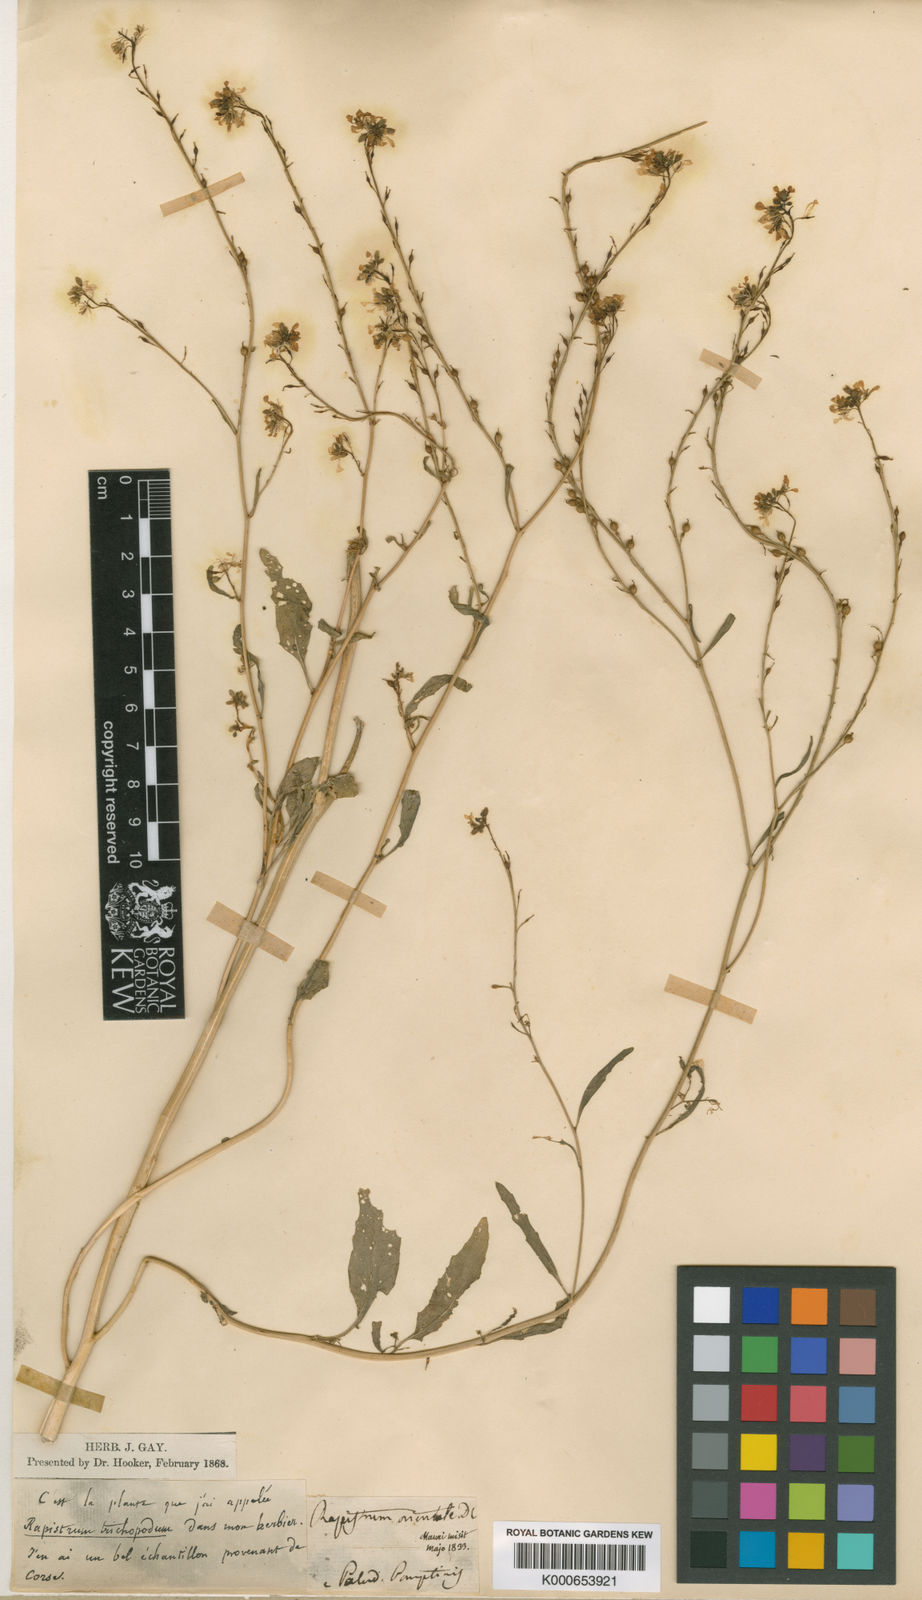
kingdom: Plantae
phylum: Tracheophyta
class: Magnoliopsida
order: Brassicales
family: Brassicaceae
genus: Rapistrum
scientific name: Rapistrum rugosum
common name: Annual bastardcabbage
